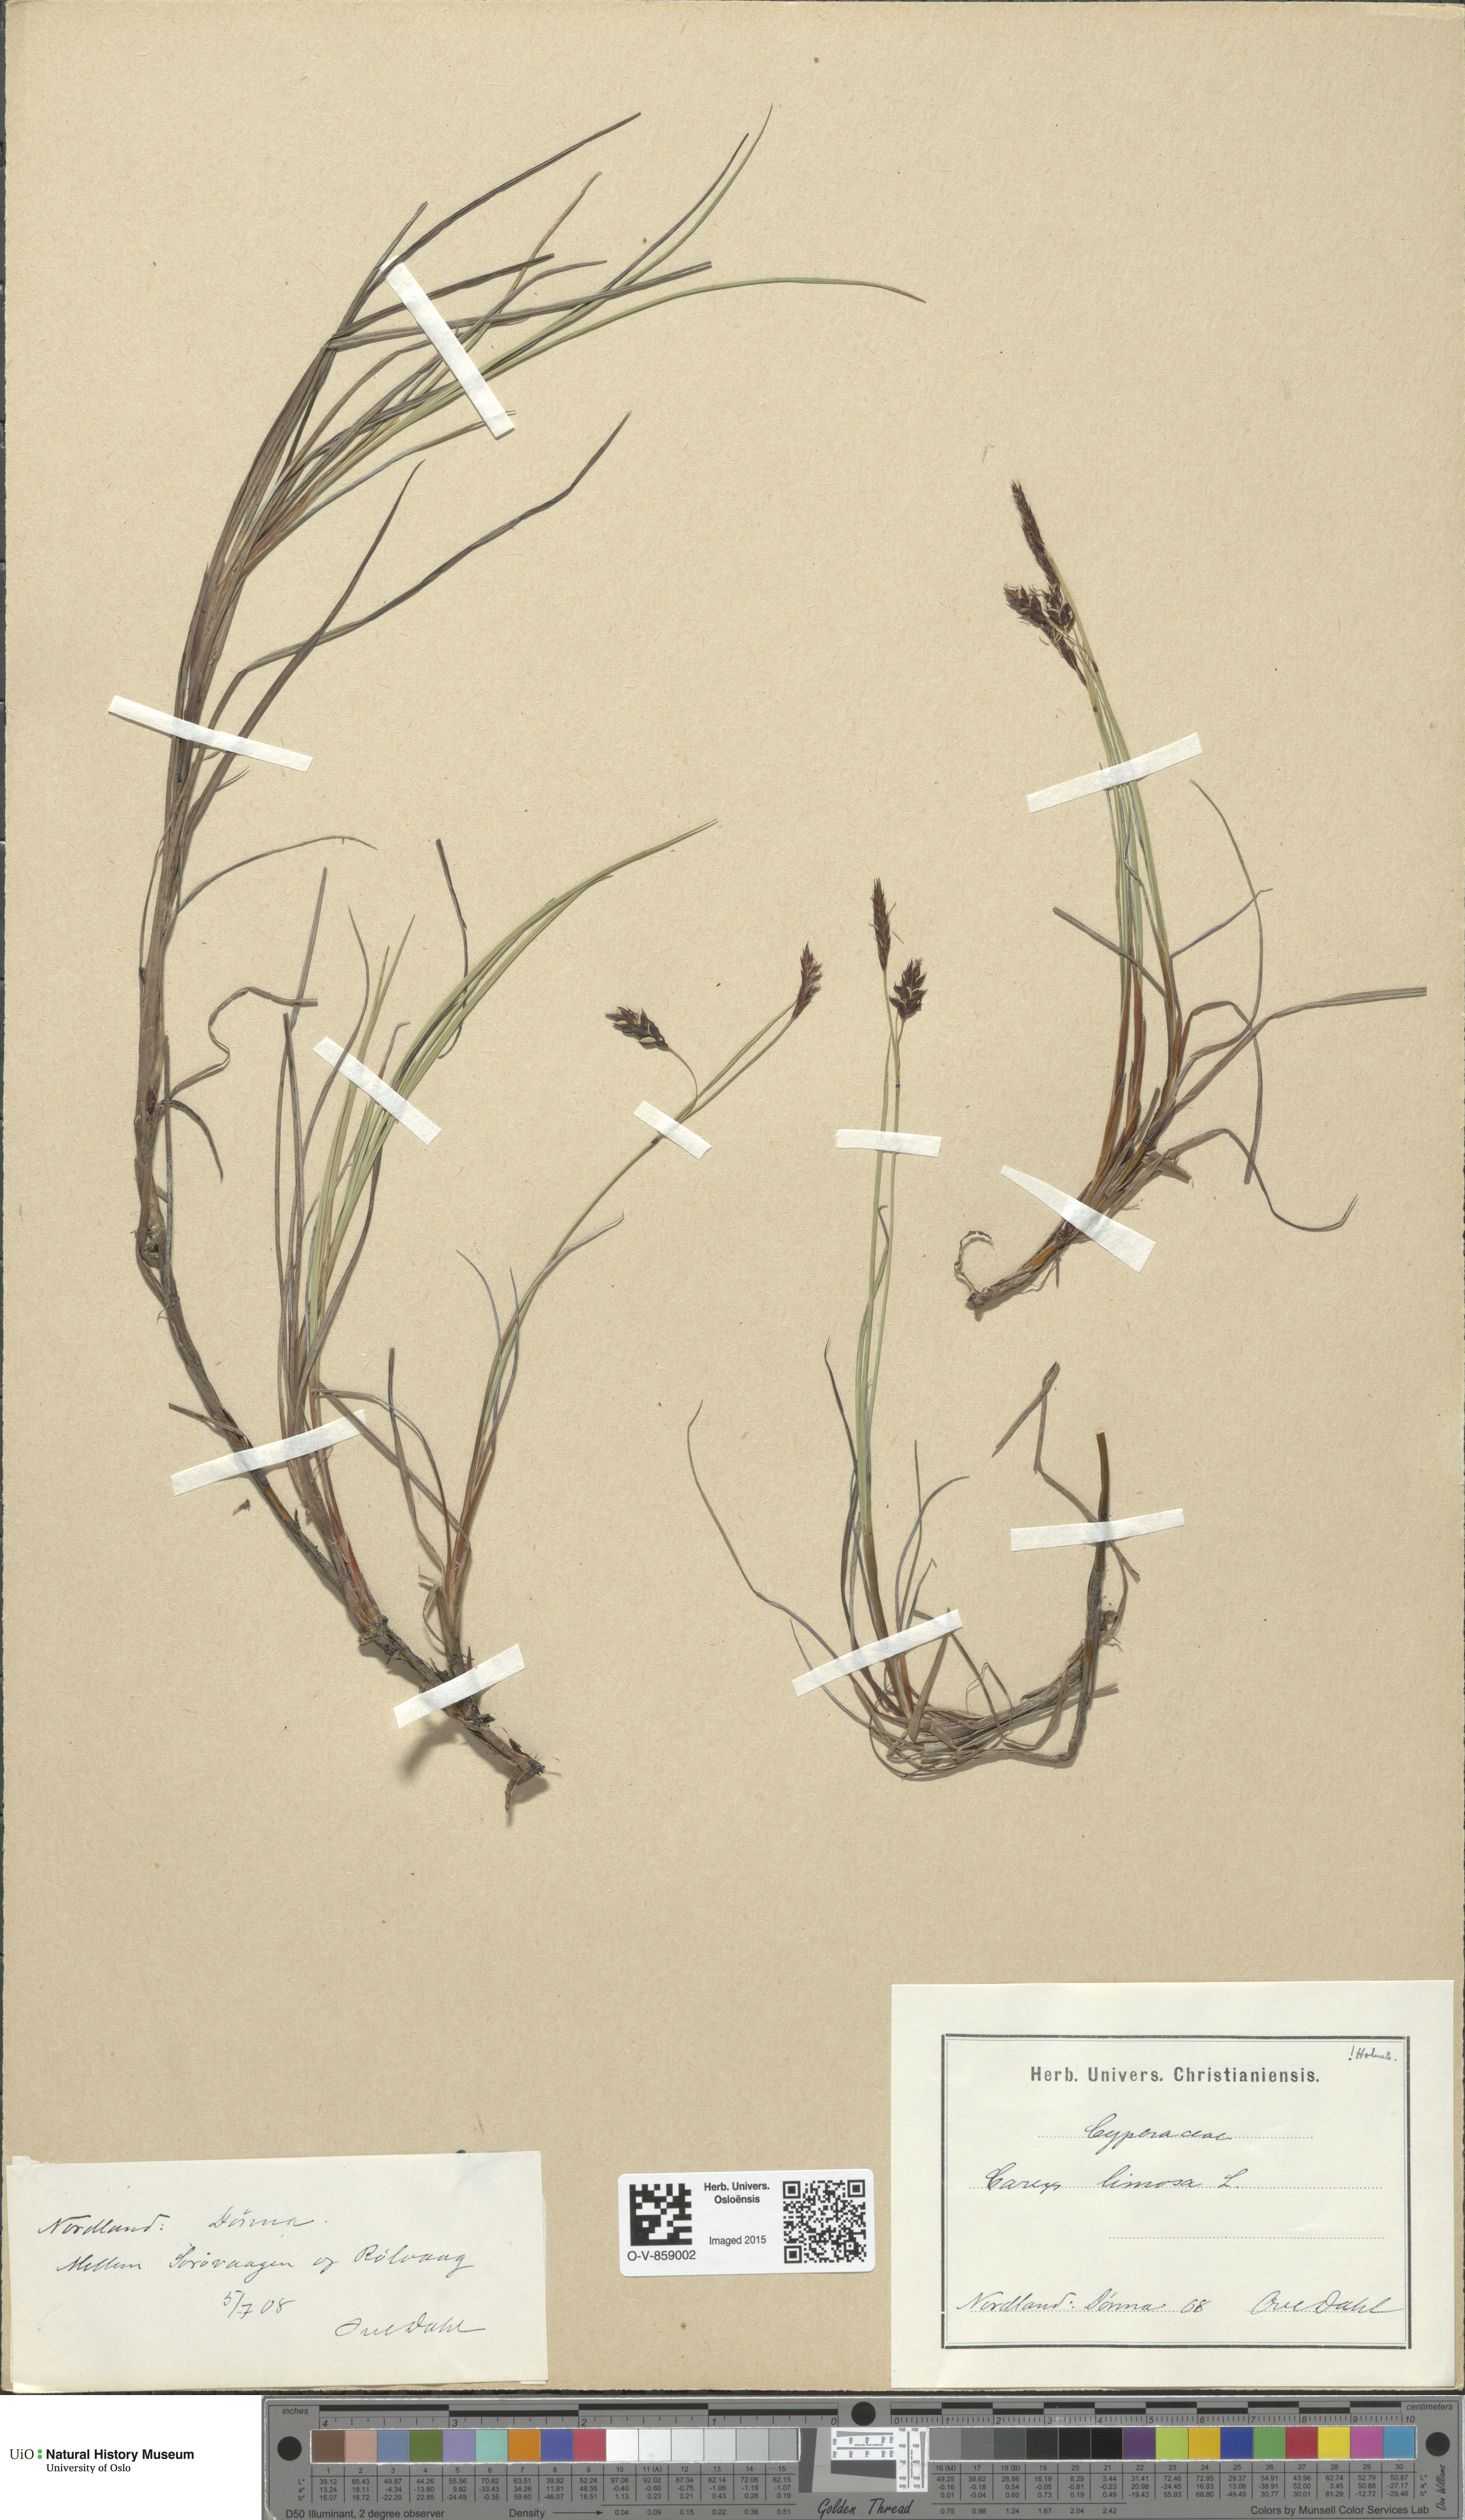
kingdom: Plantae
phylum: Tracheophyta
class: Liliopsida
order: Poales
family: Cyperaceae
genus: Carex
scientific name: Carex limosa
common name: Bog sedge
